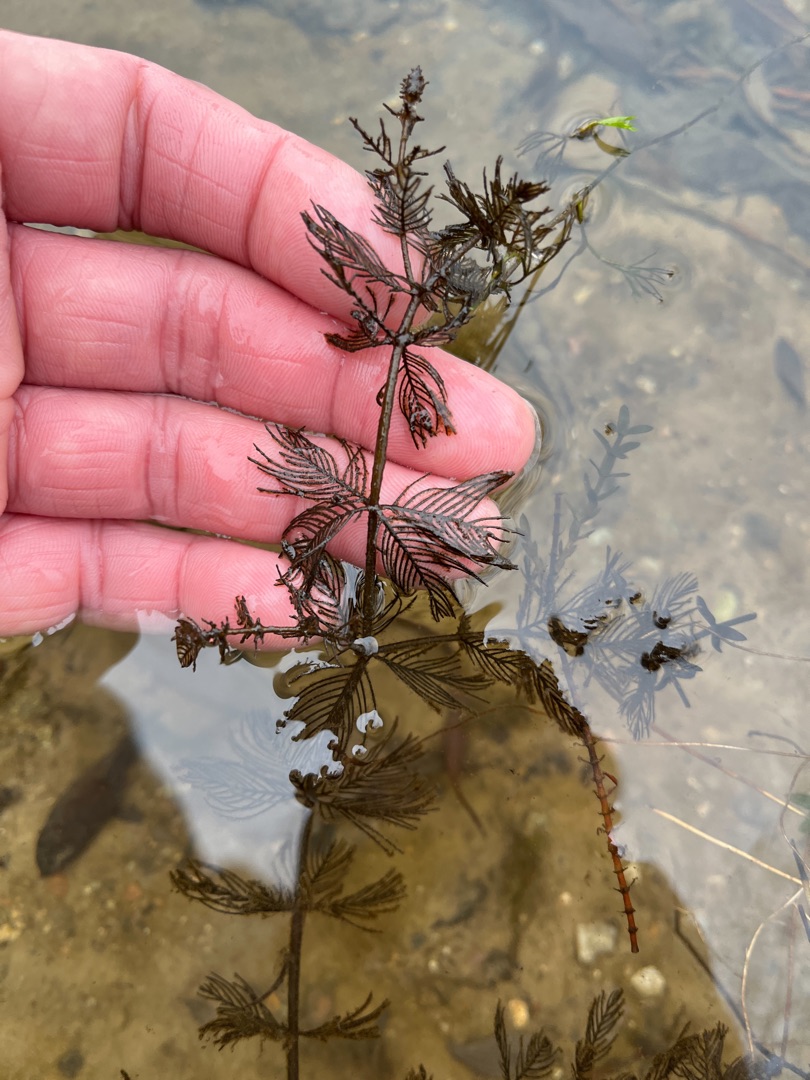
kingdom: Plantae
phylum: Tracheophyta
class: Magnoliopsida
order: Saxifragales
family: Haloragaceae
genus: Myriophyllum
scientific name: Myriophyllum spicatum
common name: Aks-tusindblad
